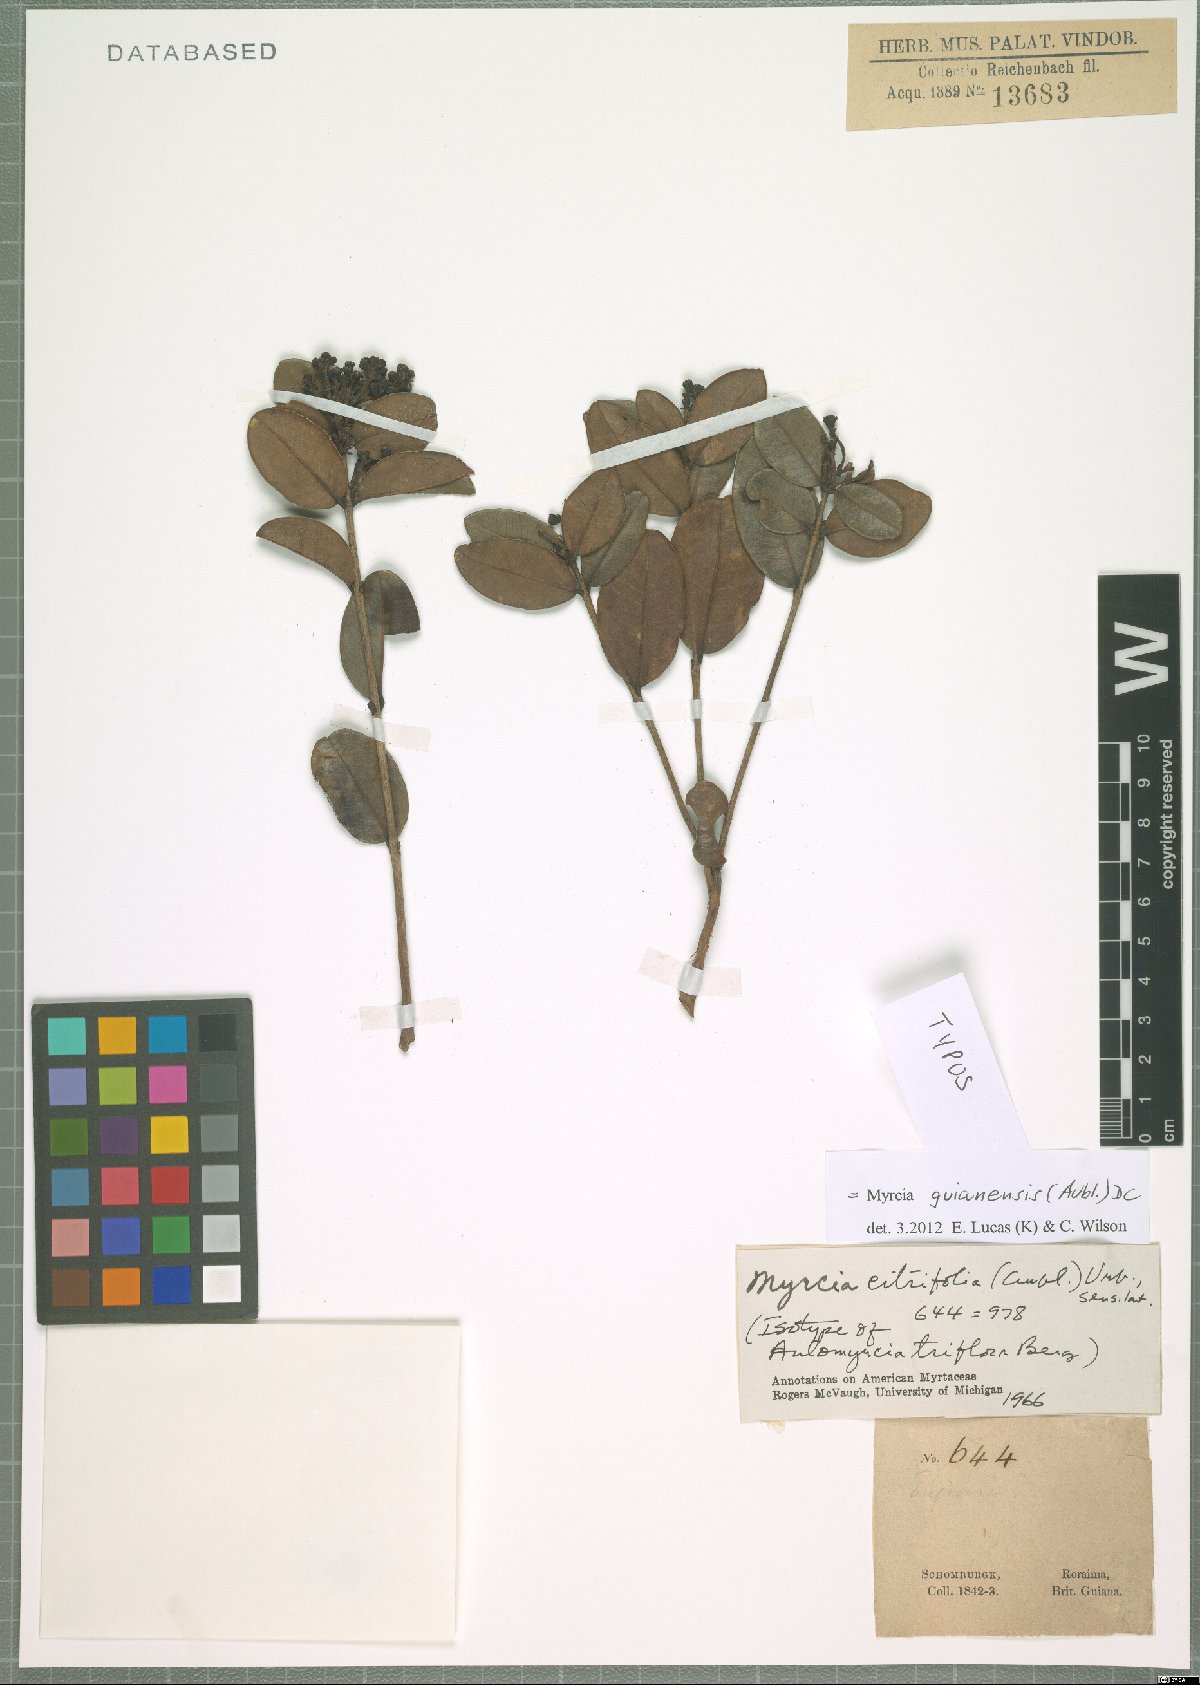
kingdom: Plantae
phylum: Tracheophyta
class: Magnoliopsida
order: Myrtales
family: Myrtaceae
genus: Myrcia
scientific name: Myrcia guianensis
